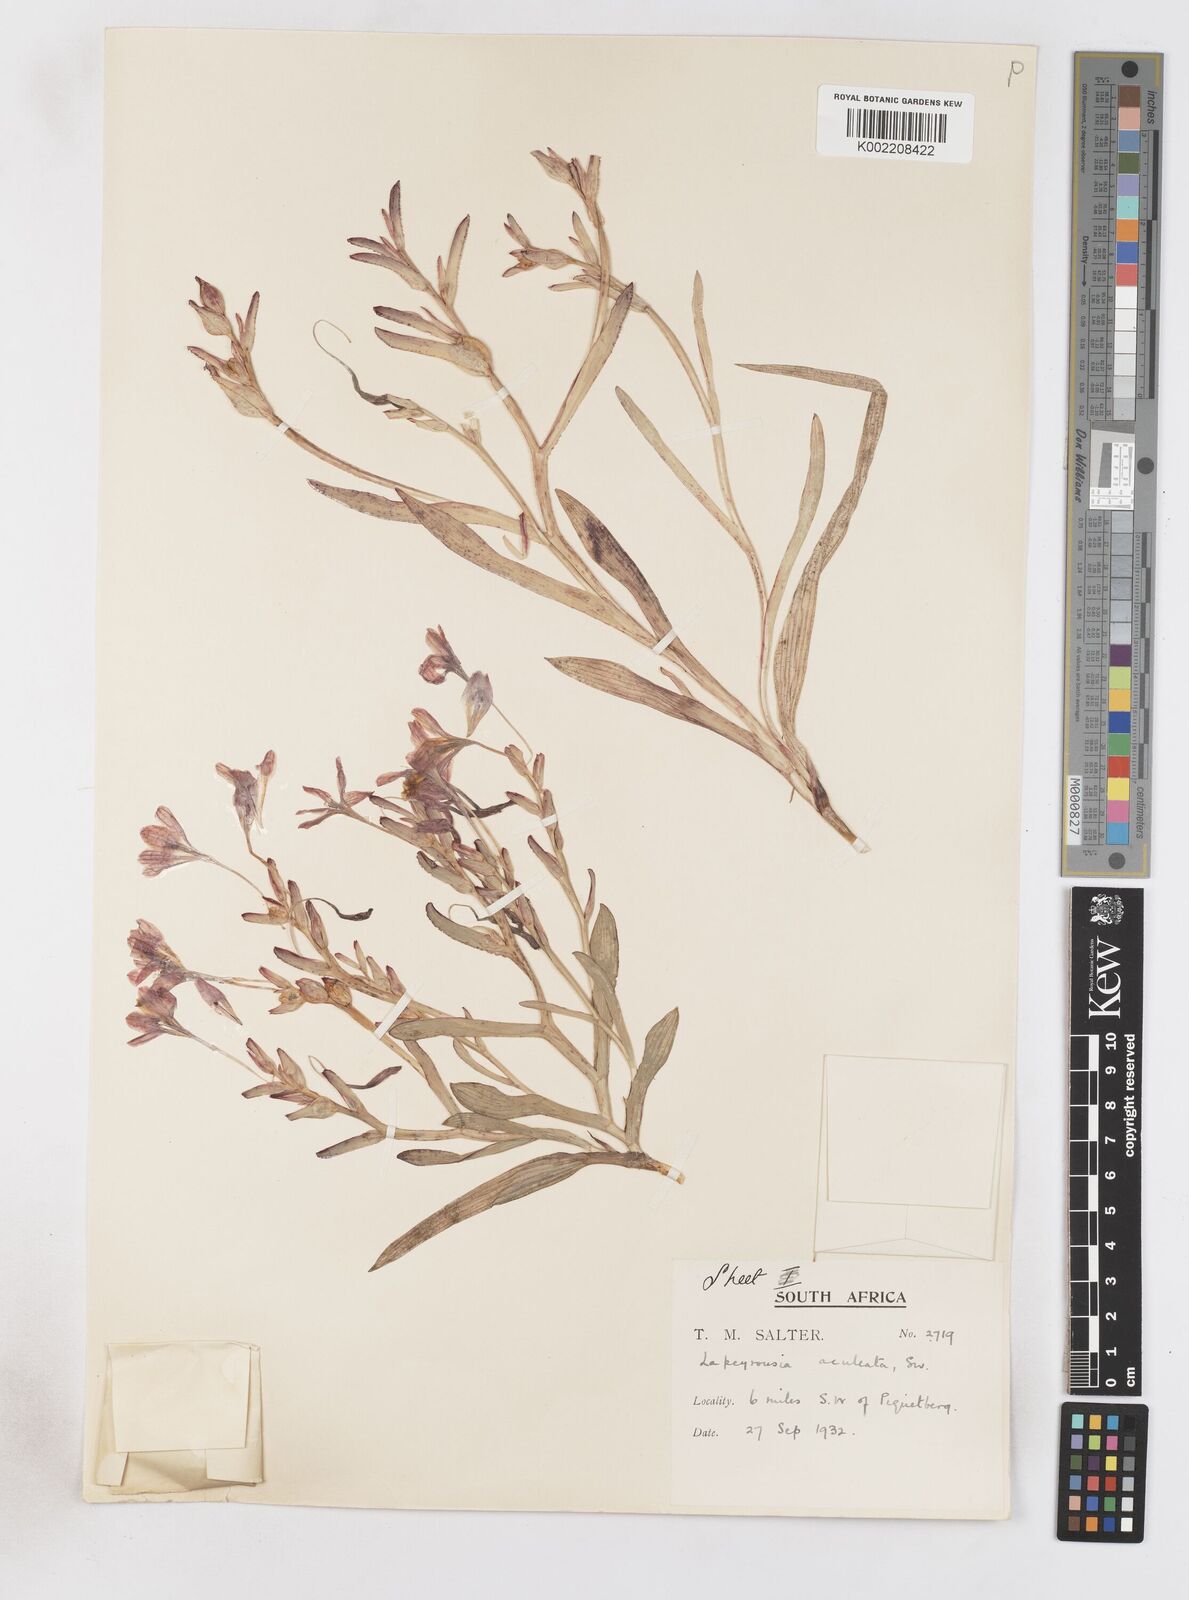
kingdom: Plantae
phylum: Tracheophyta
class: Liliopsida
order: Asparagales
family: Iridaceae
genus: Lapeirousia
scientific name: Lapeirousia fabricii
